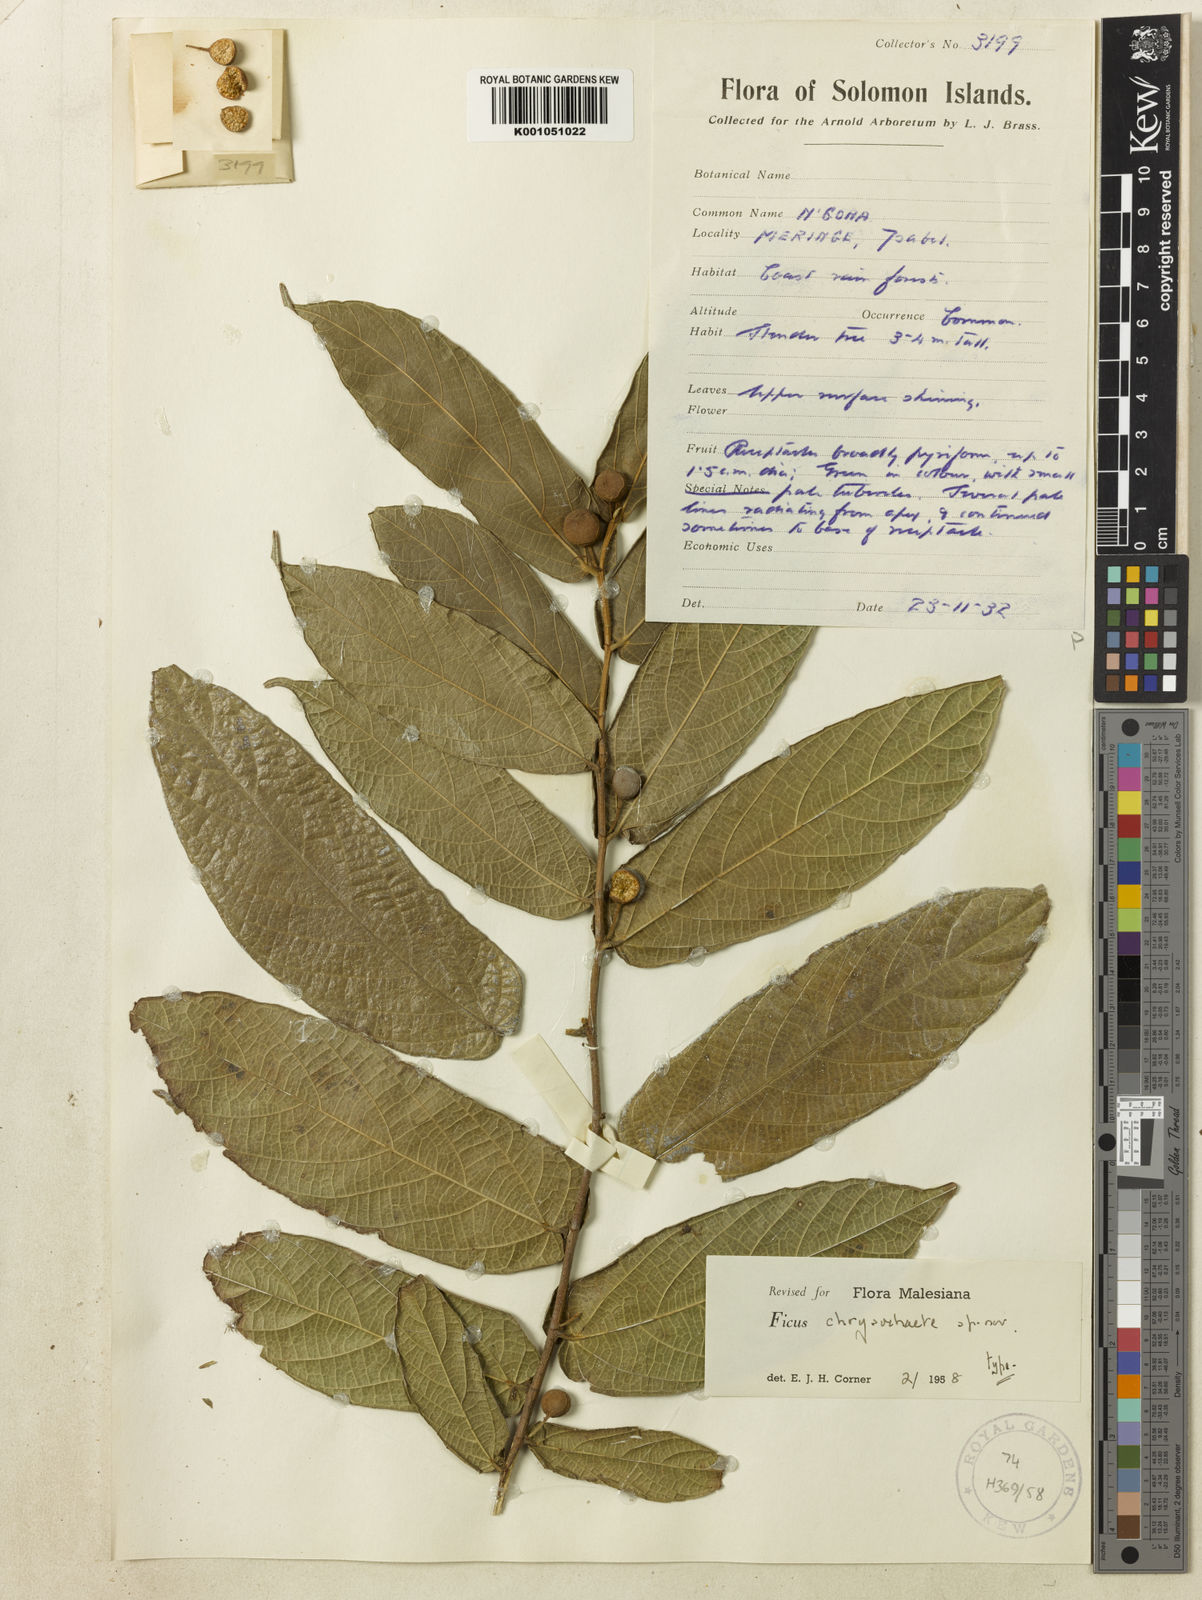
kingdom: Plantae
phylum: Tracheophyta
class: Magnoliopsida
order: Rosales
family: Moraceae
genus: Ficus
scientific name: Ficus chrysochaete
